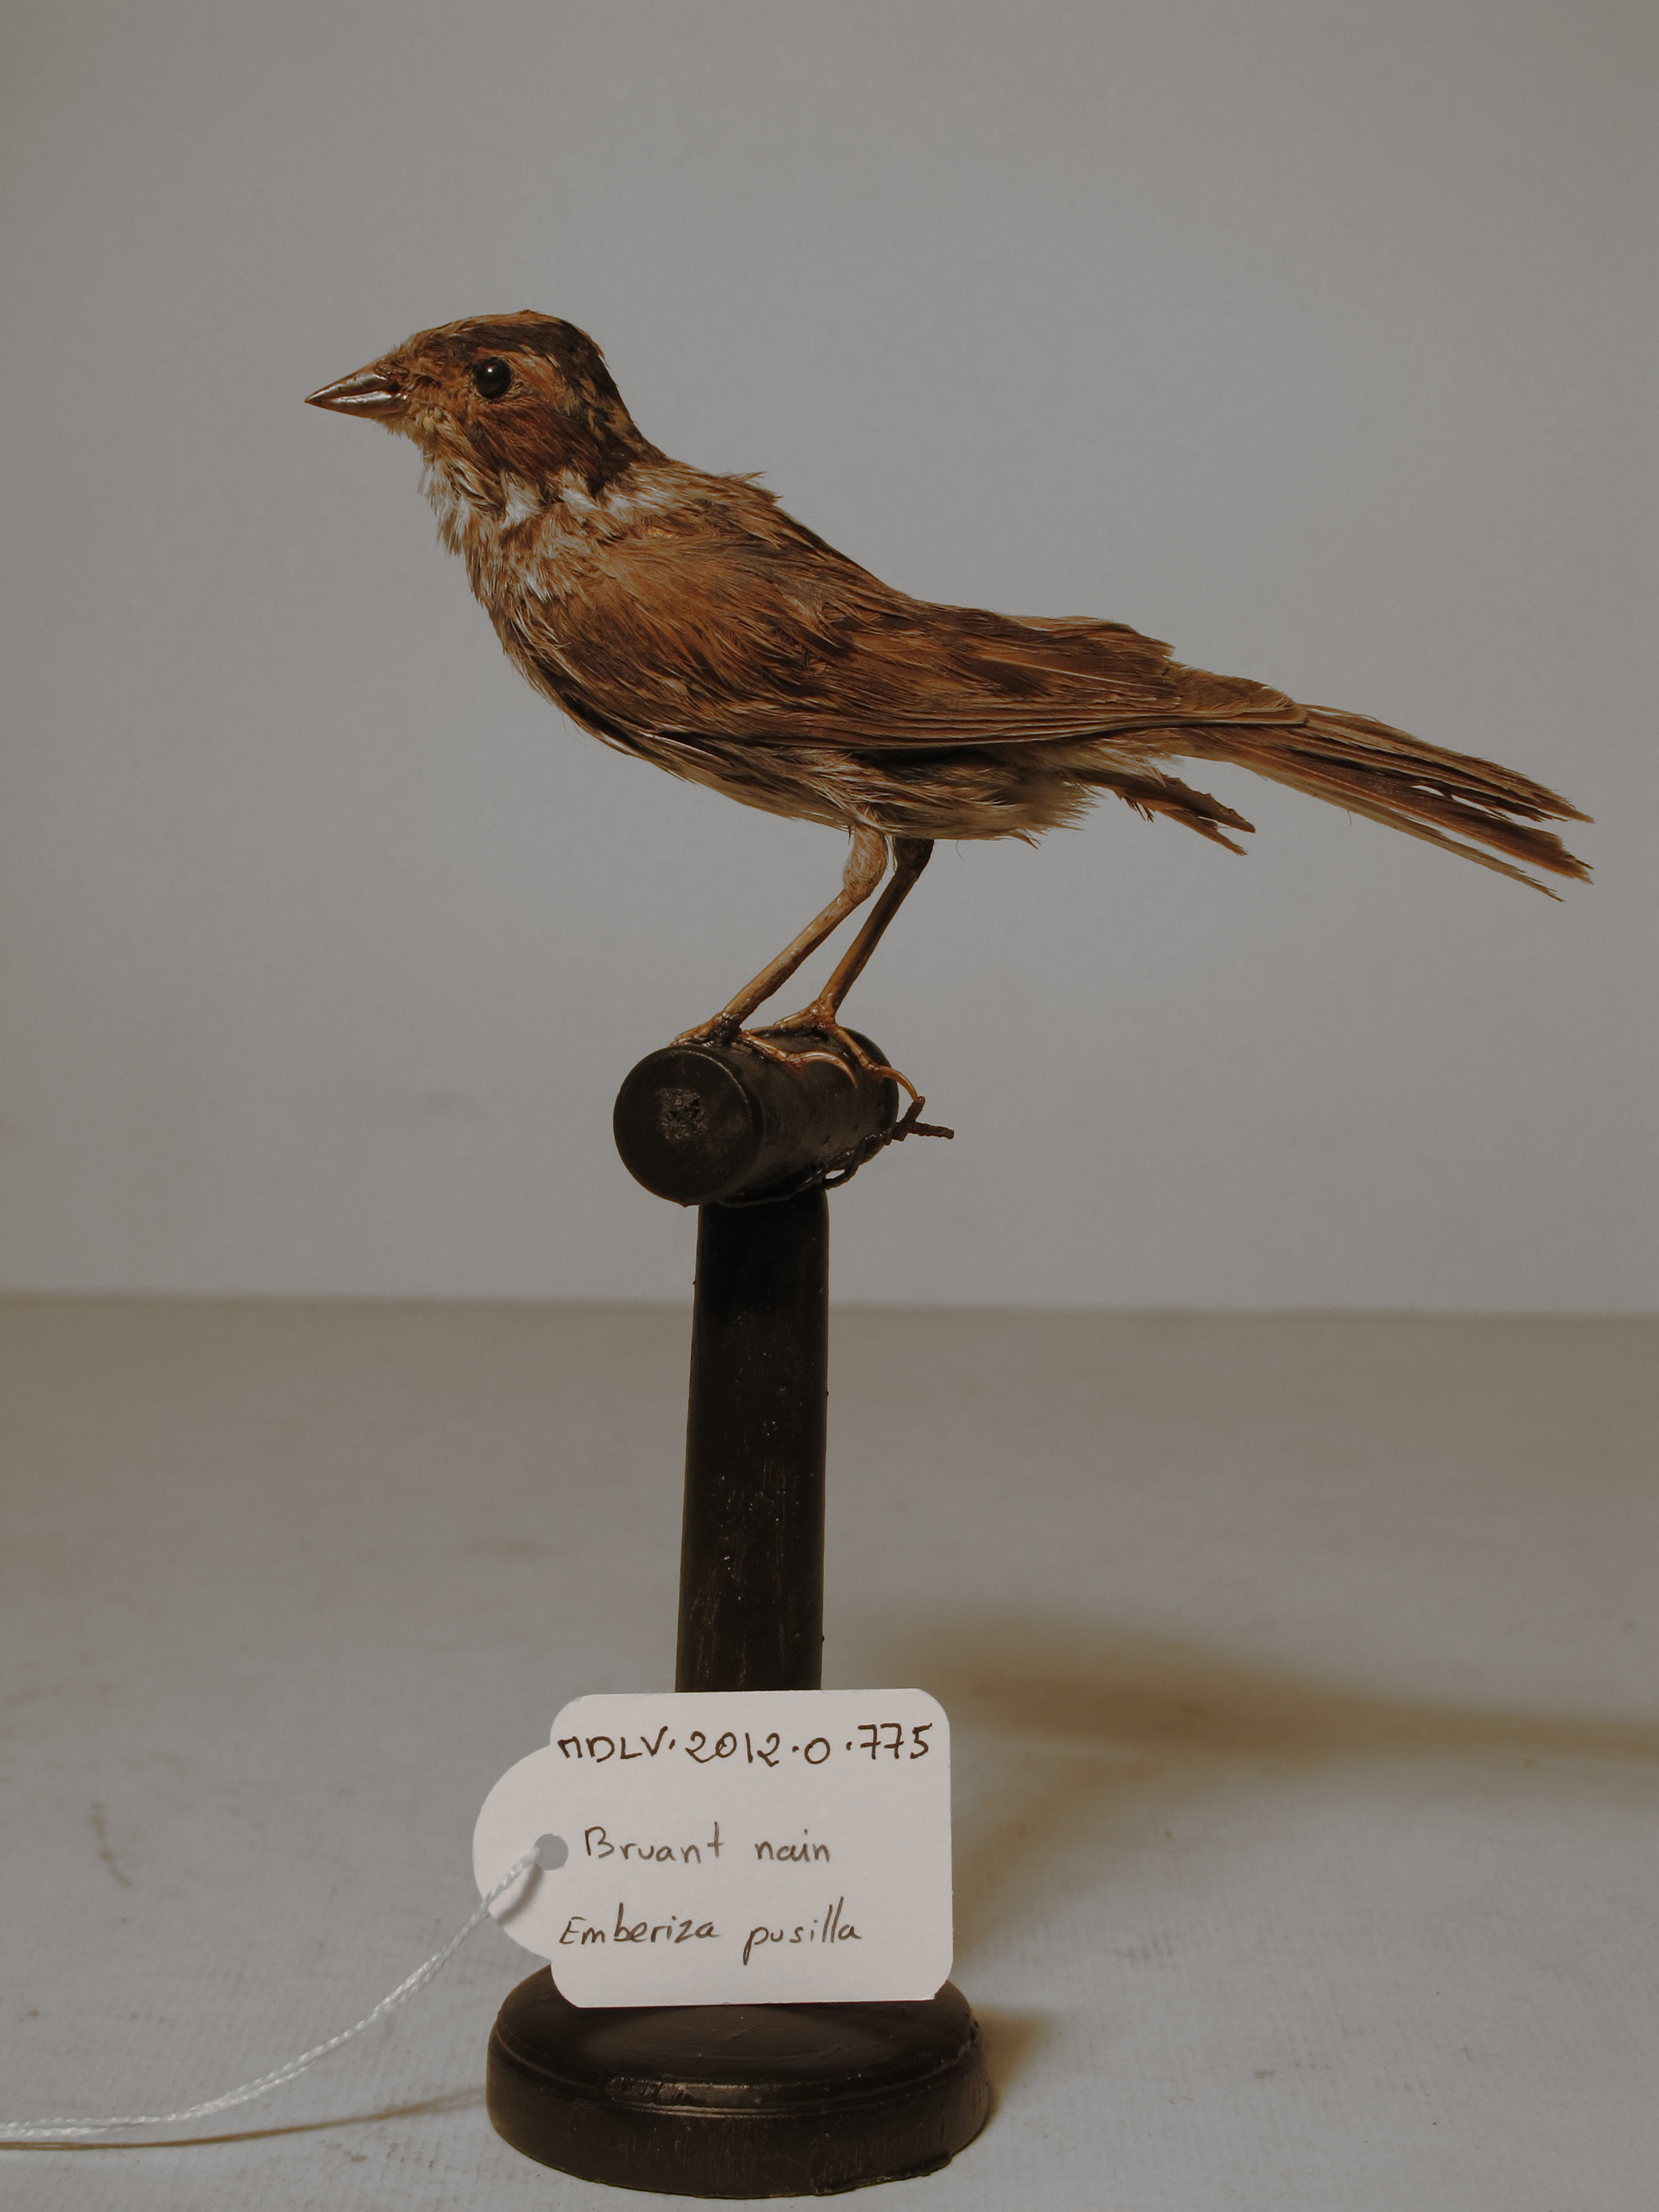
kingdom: Animalia
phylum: Chordata
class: Aves
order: Passeriformes
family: Emberizidae
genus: Emberiza
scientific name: Emberiza pusilla
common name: Little Bunting
